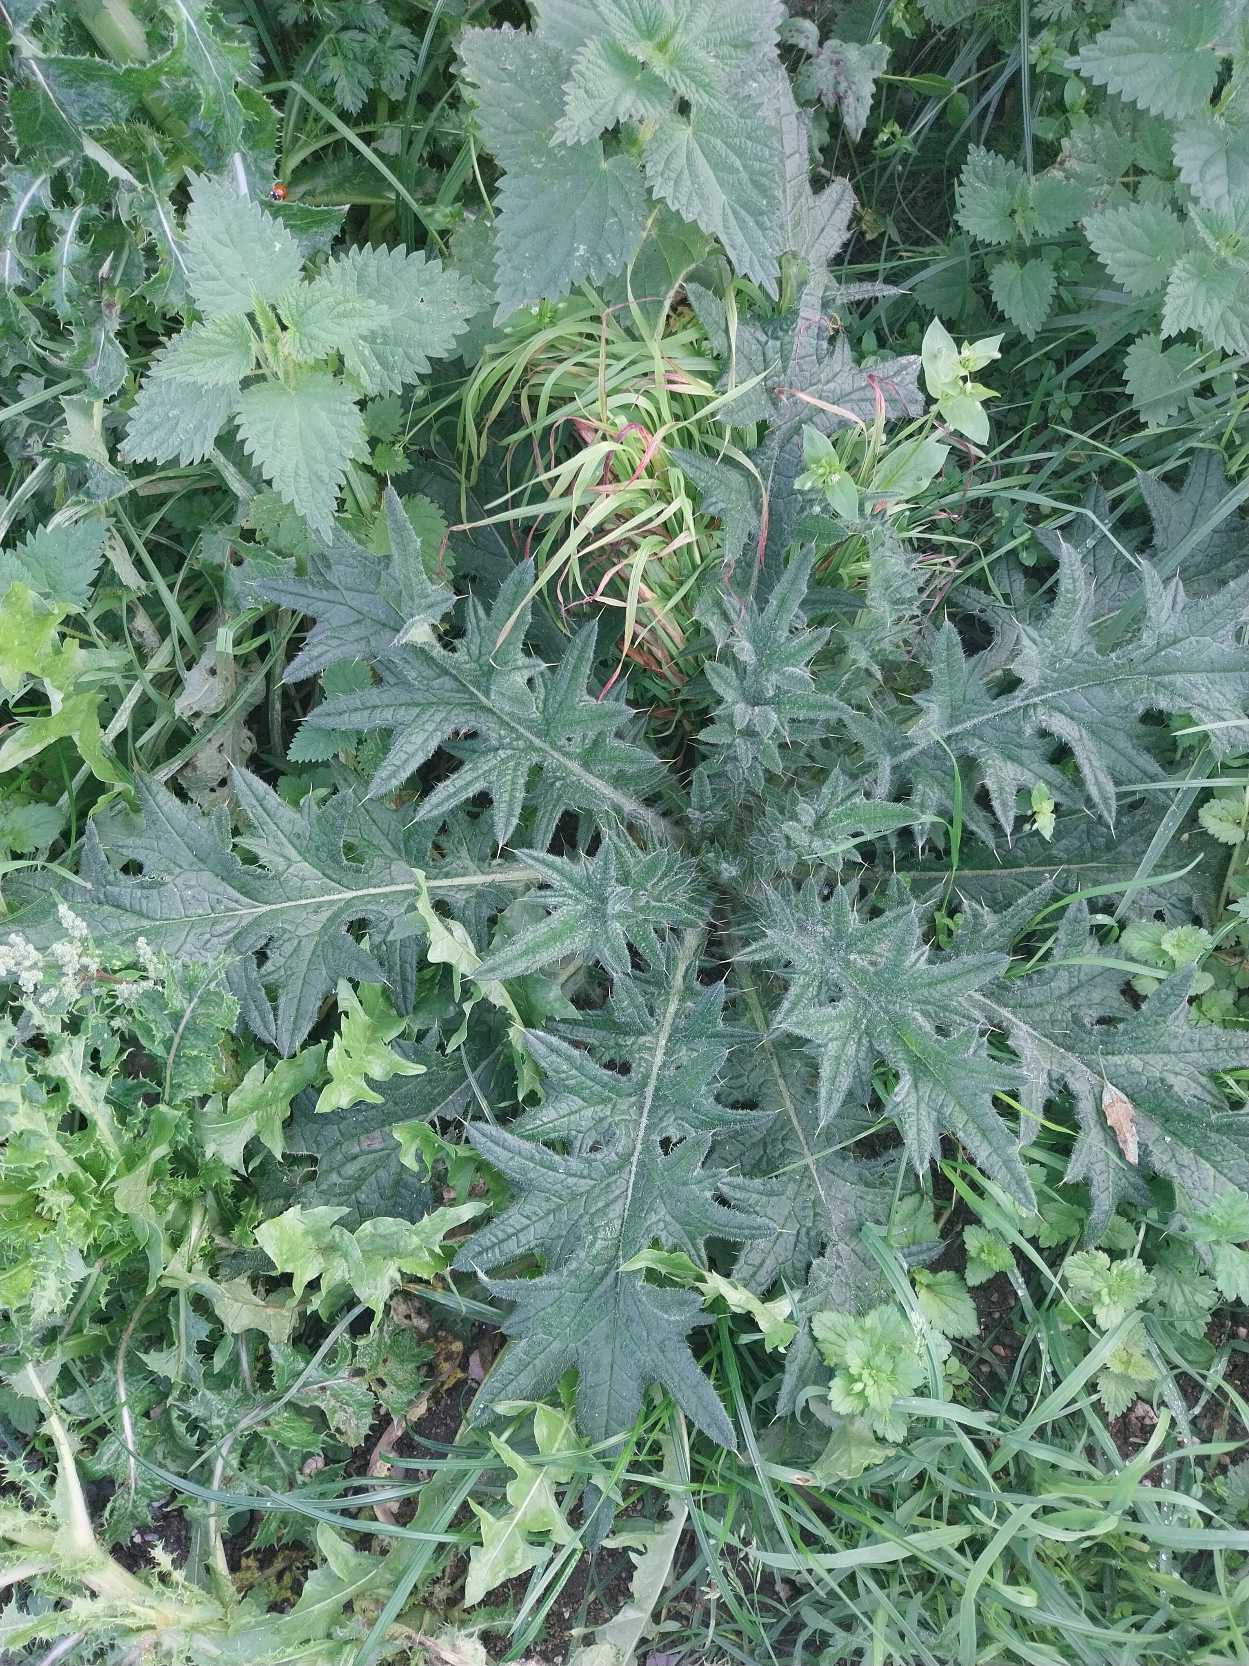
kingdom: Plantae
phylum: Tracheophyta
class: Magnoliopsida
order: Asterales
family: Asteraceae
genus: Cirsium
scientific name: Cirsium vulgare
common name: Horse-tidsel
